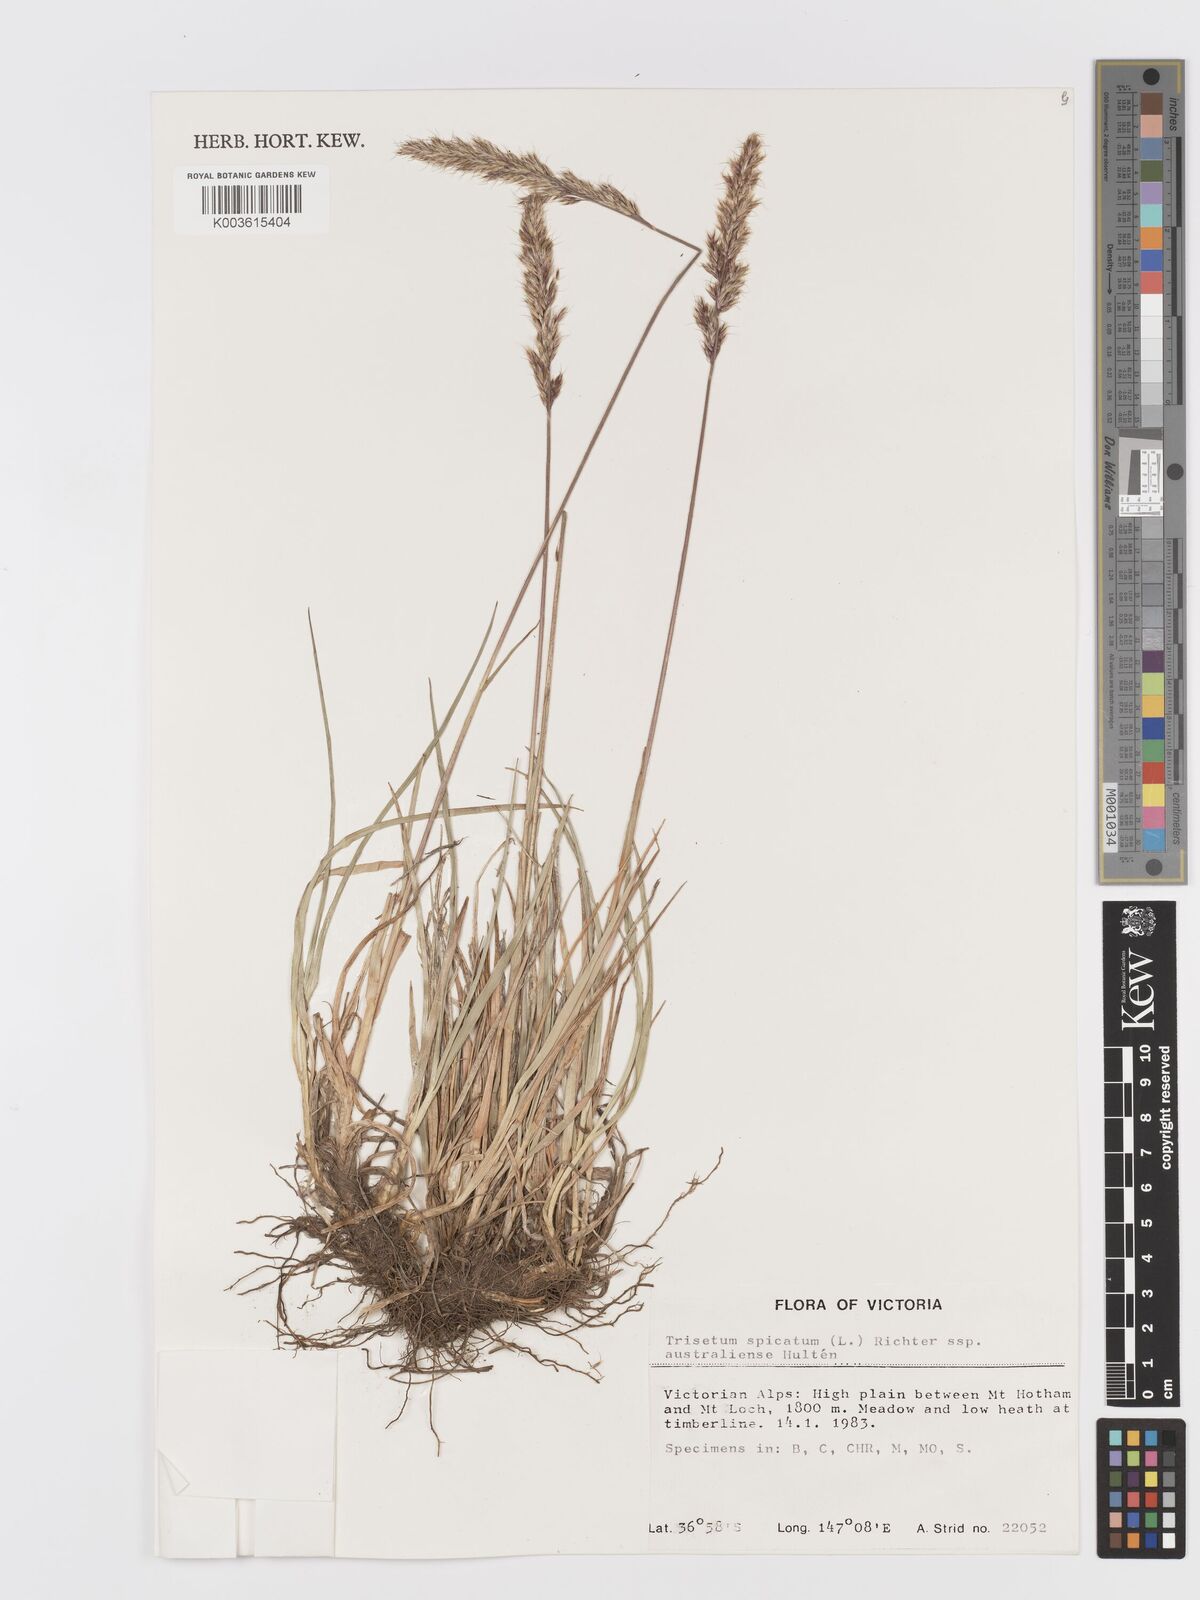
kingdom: Plantae
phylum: Tracheophyta
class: Liliopsida
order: Poales
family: Poaceae
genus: Koeleria
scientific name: Koeleria spicata
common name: Mountain trisetum
